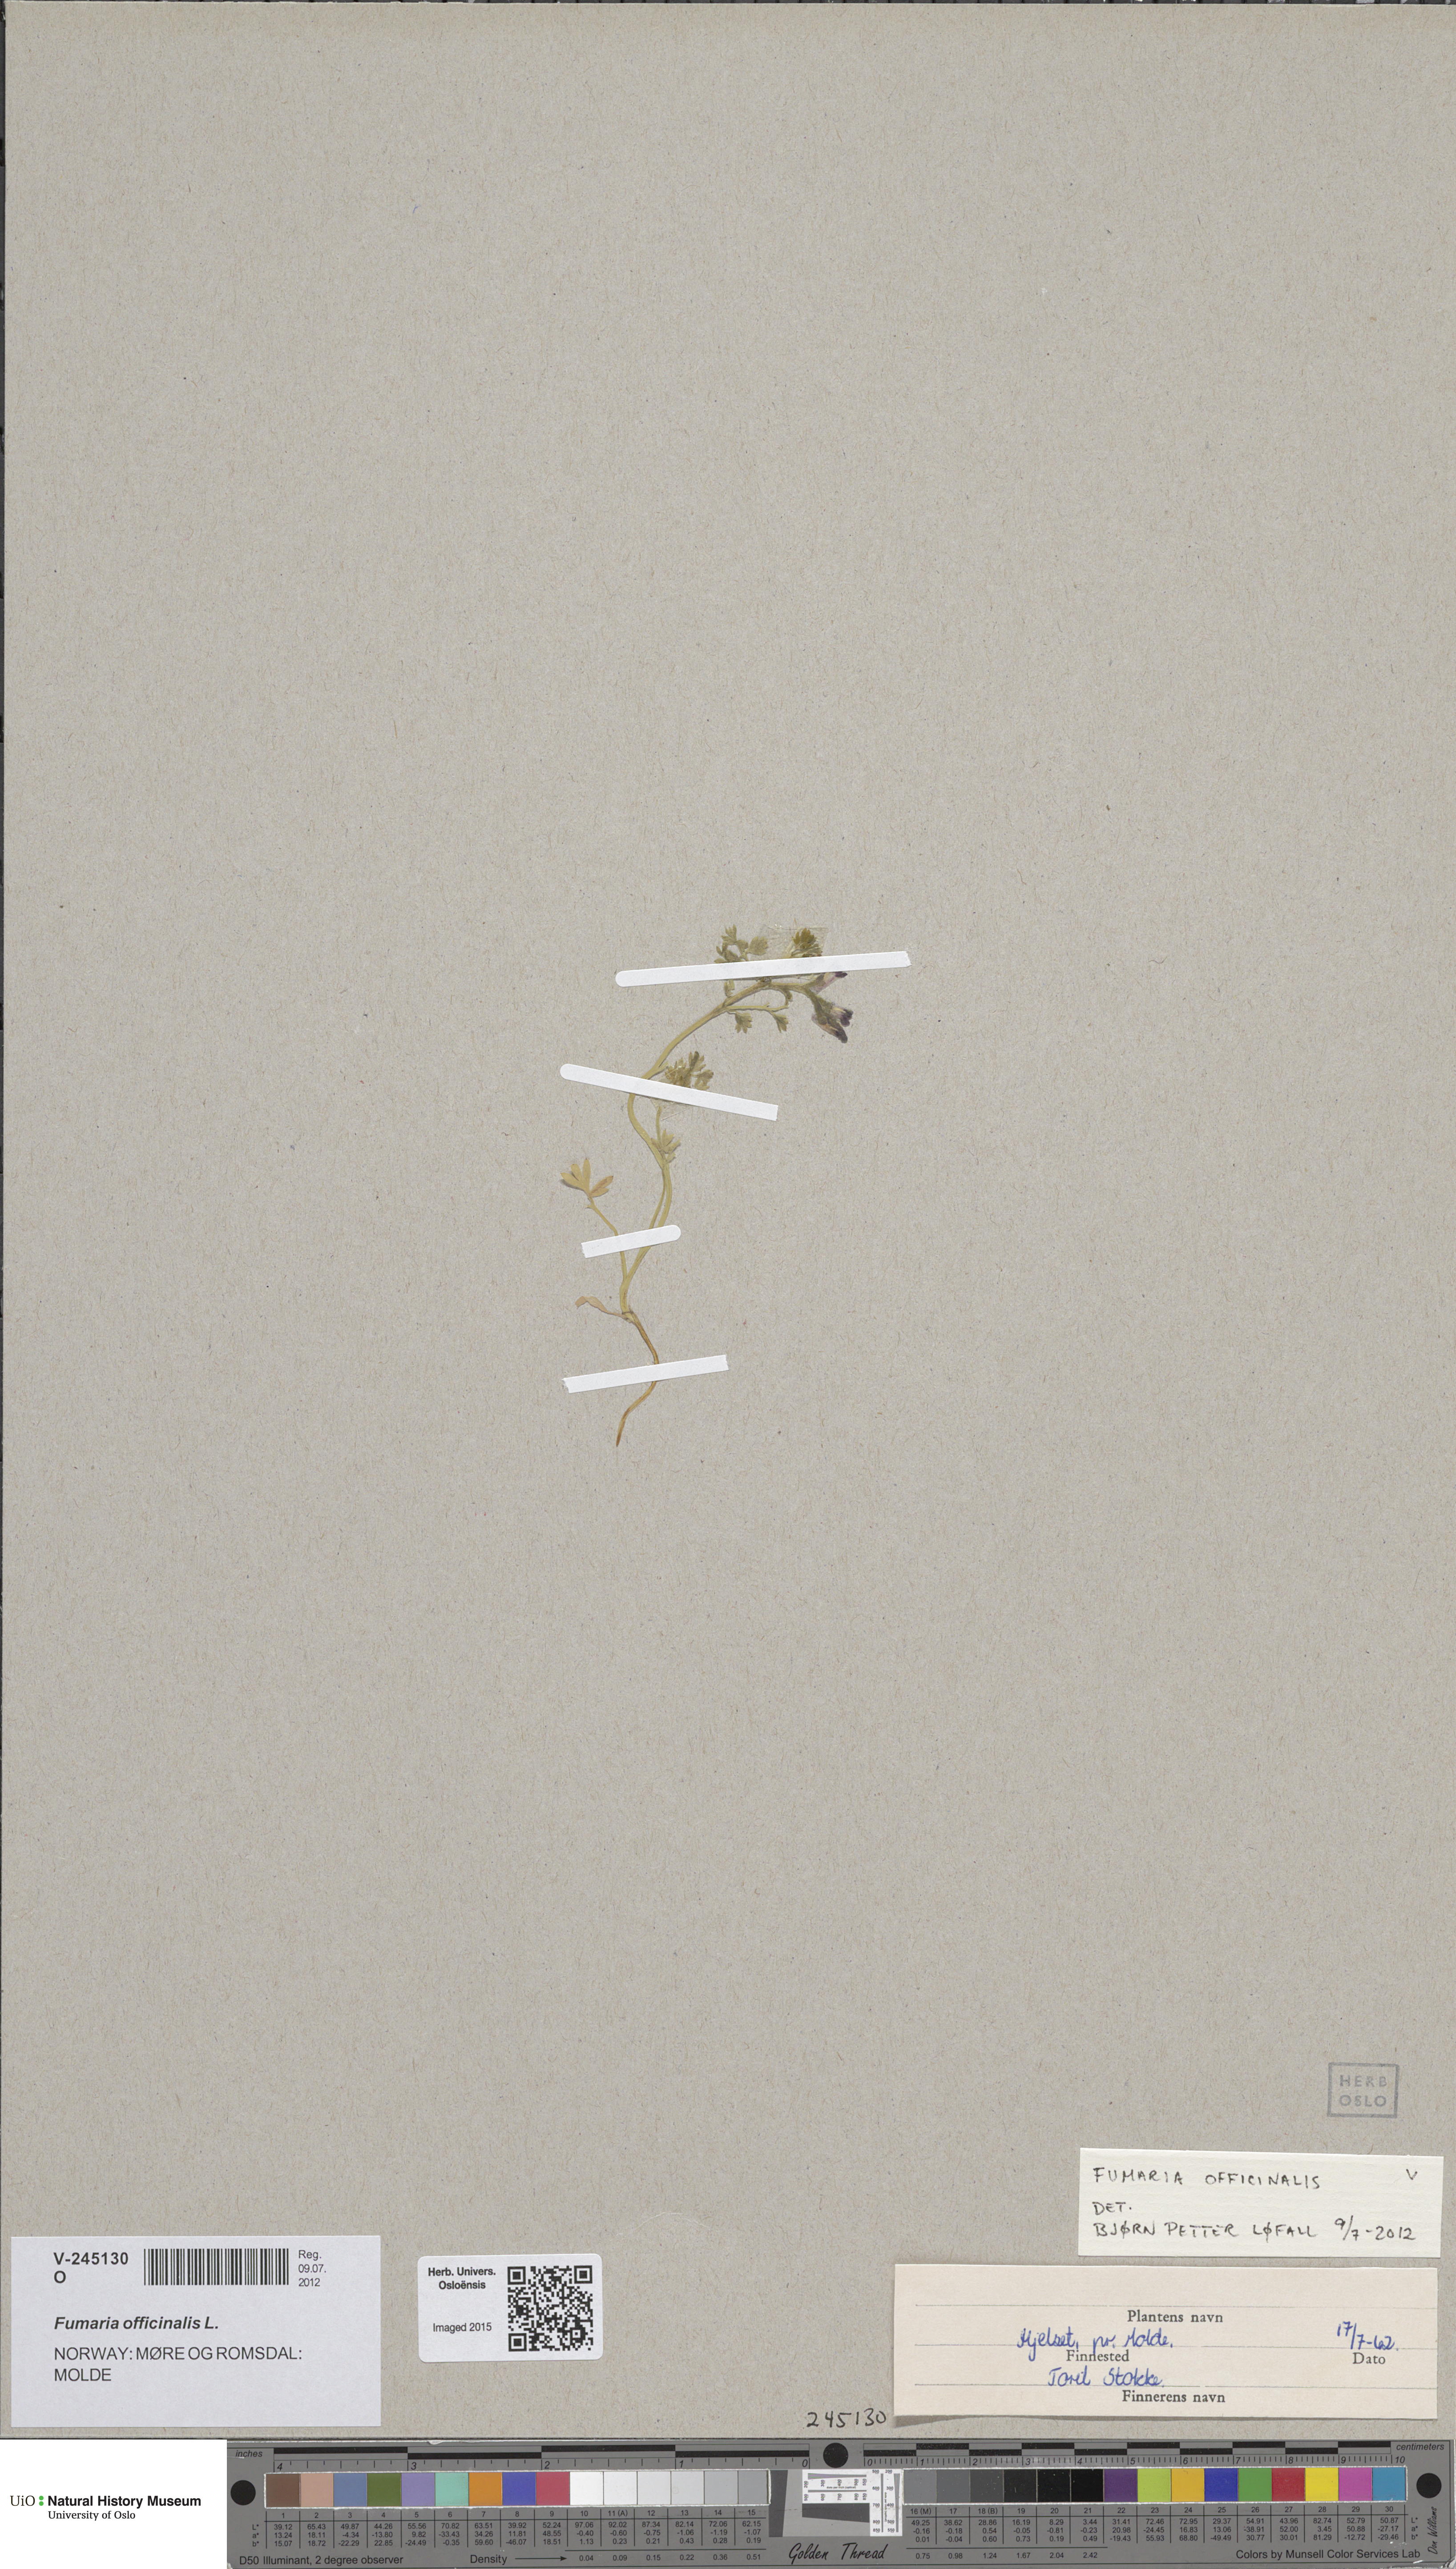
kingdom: Plantae
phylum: Tracheophyta
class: Magnoliopsida
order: Ranunculales
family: Papaveraceae
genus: Fumaria
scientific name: Fumaria officinalis
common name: Common fumitory
